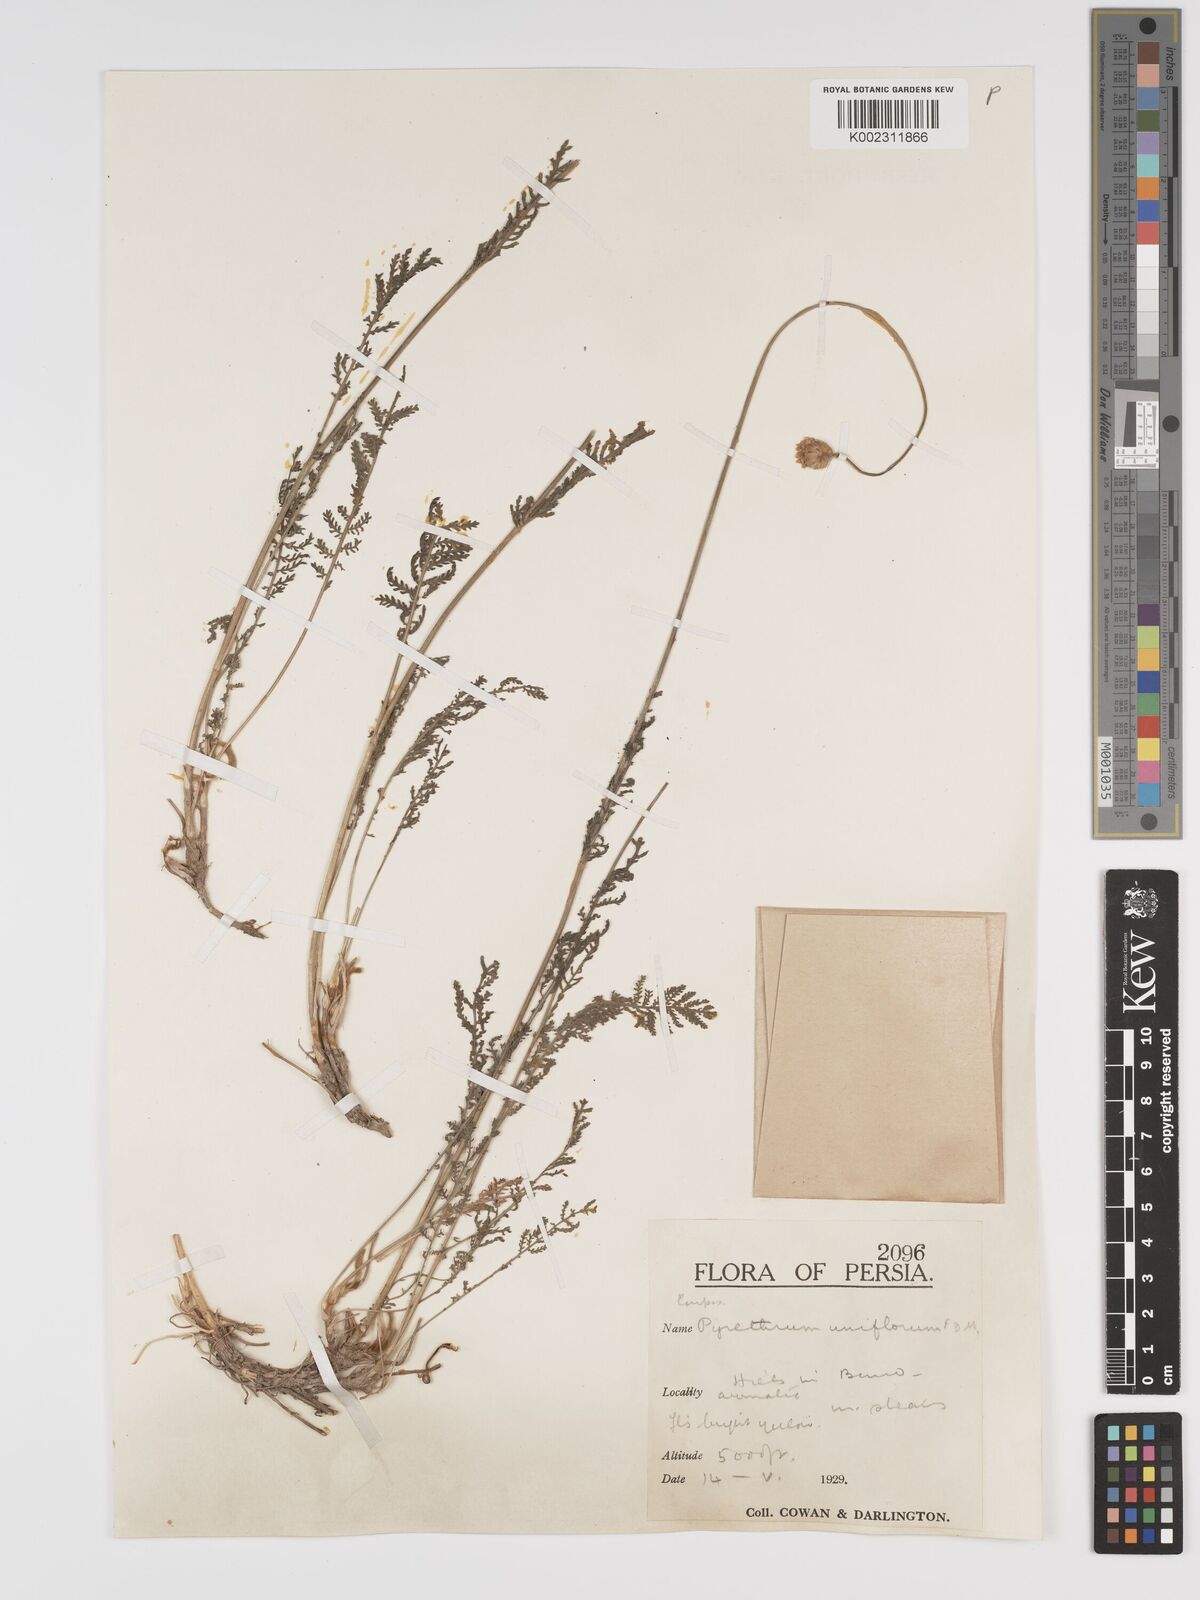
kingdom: Plantae
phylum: Tracheophyta
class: Magnoliopsida
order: Asterales
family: Asteraceae
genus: Tanacetum
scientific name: Tanacetum uniflorum
